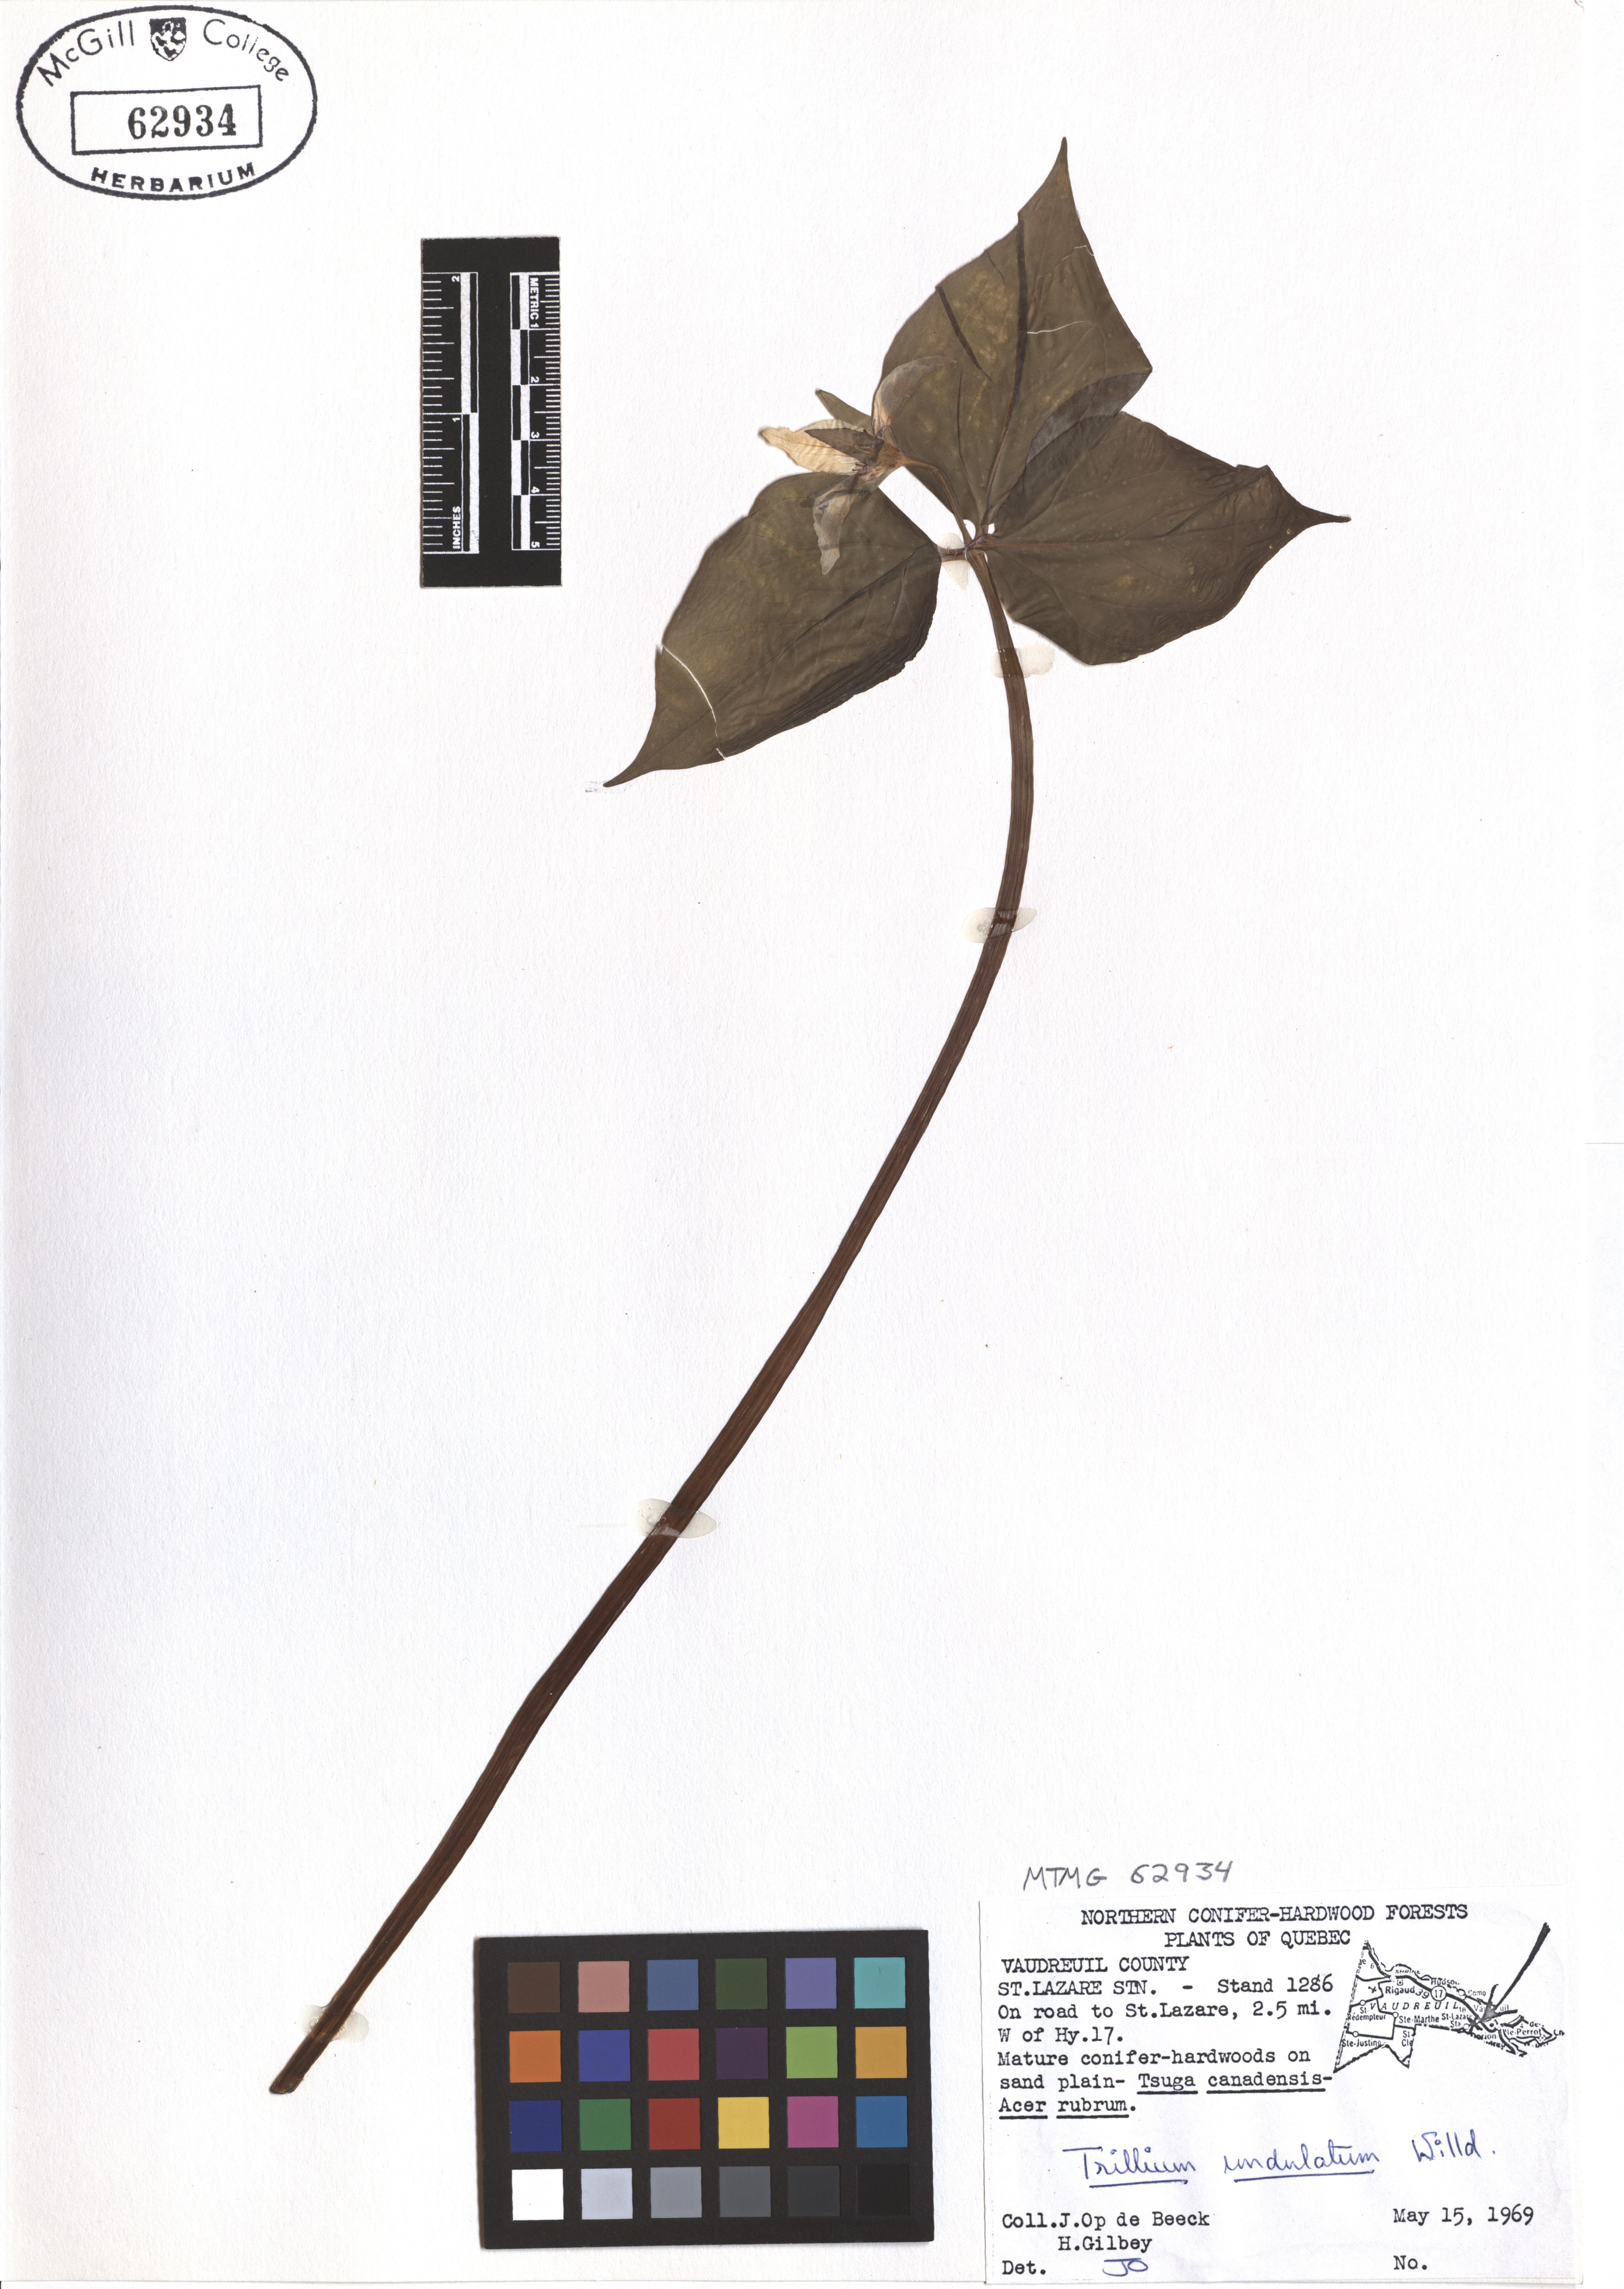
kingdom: Plantae
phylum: Tracheophyta
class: Liliopsida
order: Liliales
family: Melanthiaceae
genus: Trillium
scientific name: Trillium undulatum
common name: Paint trillium
